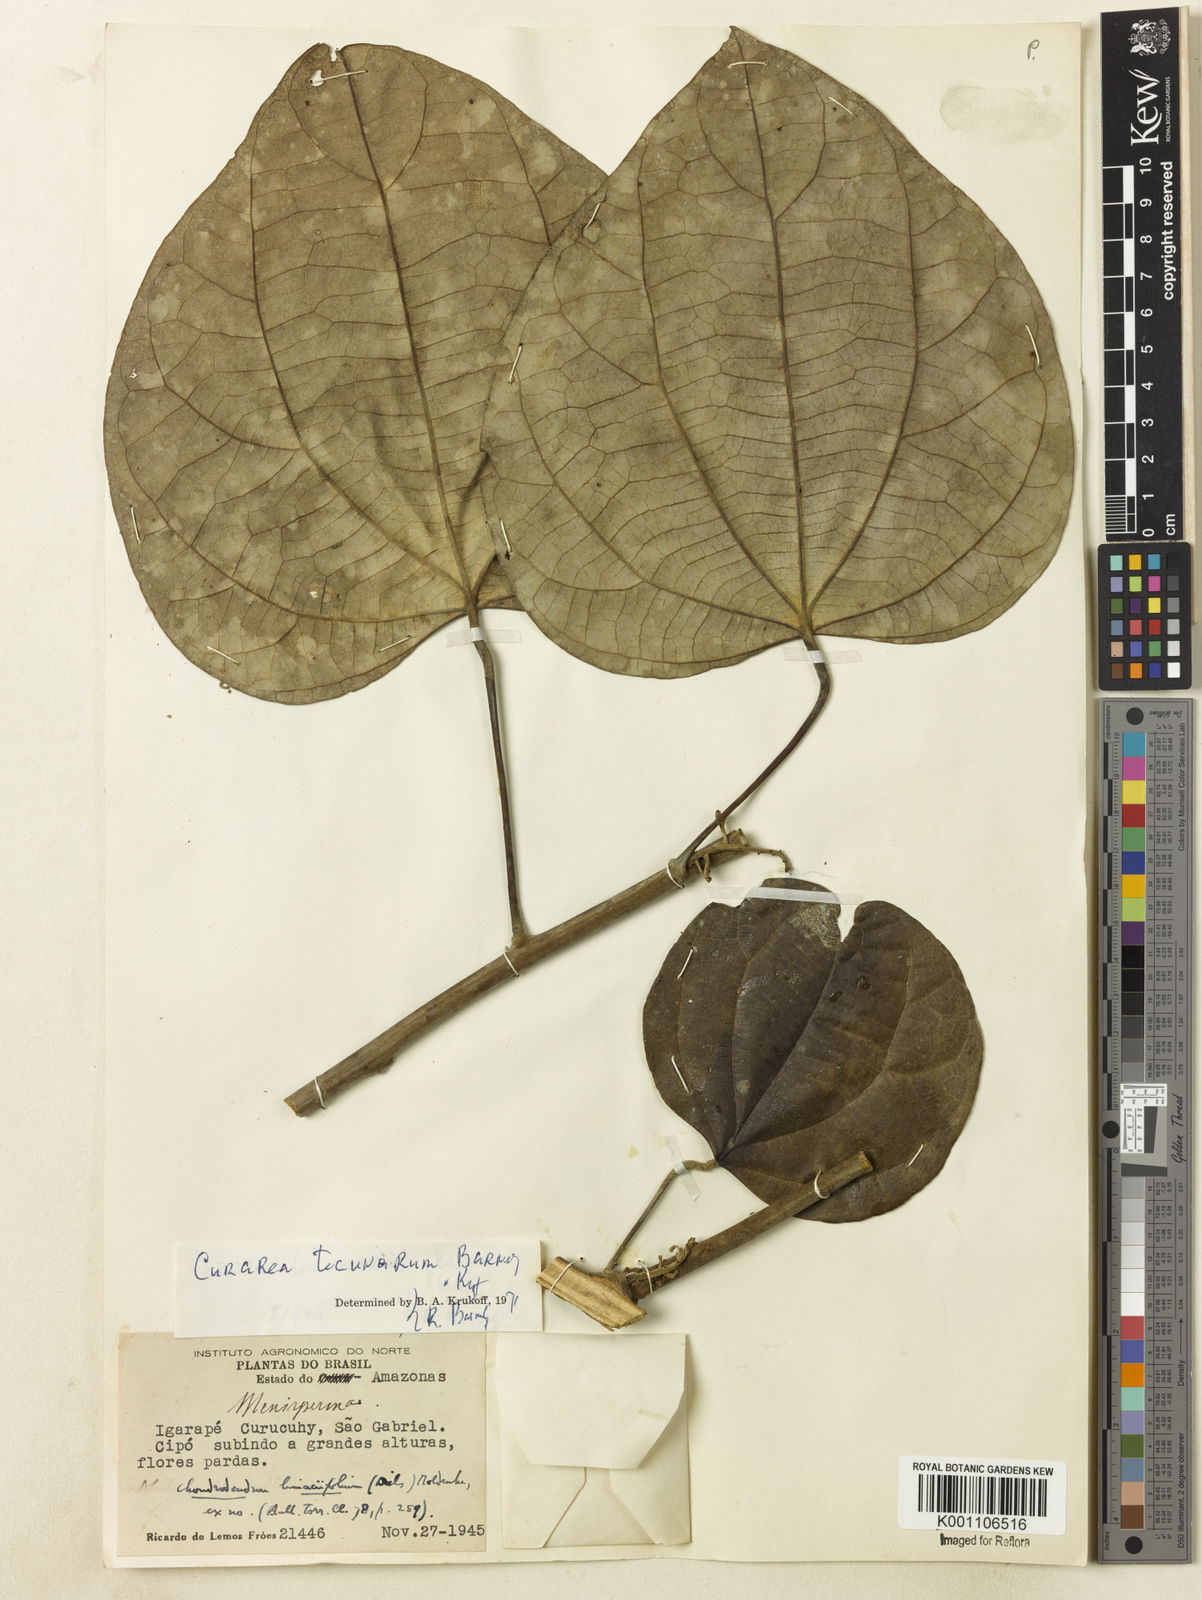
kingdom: Plantae
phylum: Tracheophyta
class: Magnoliopsida
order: Ranunculales
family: Menispermaceae
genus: Curarea
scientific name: Curarea tecunarum
